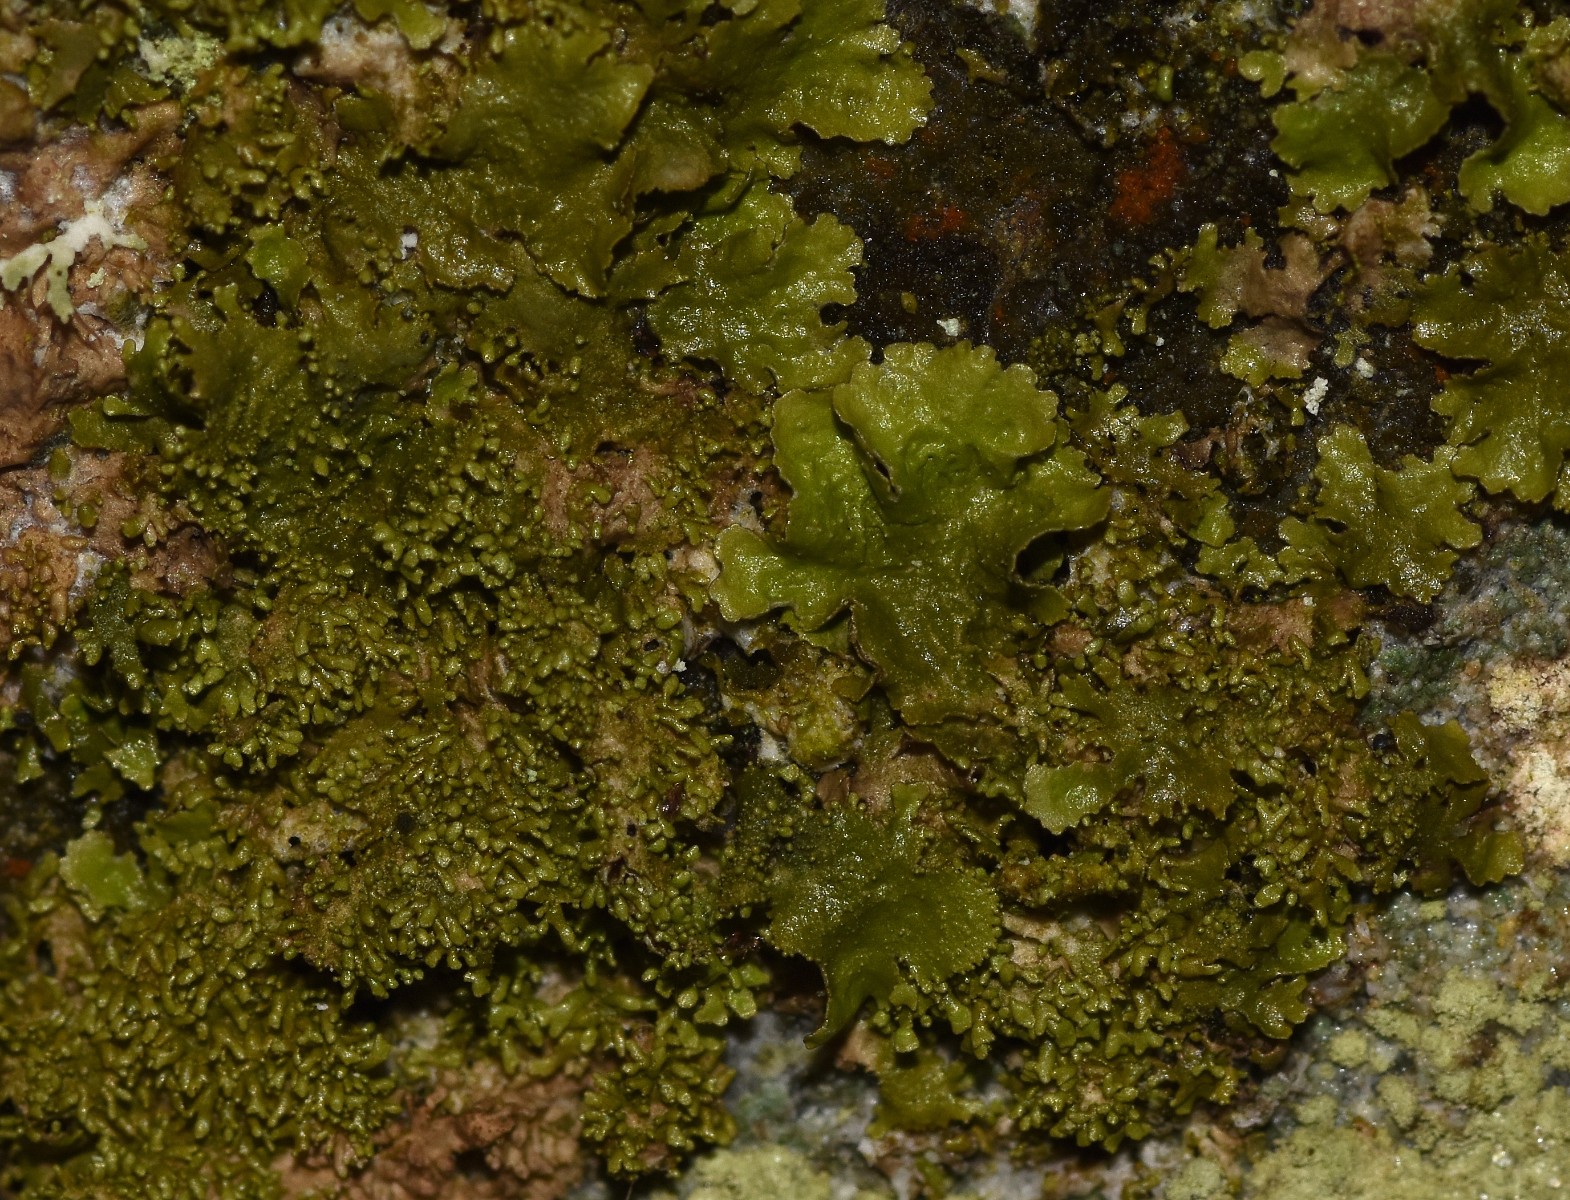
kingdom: Fungi
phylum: Ascomycota
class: Lecanoromycetes
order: Lecanorales
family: Parmeliaceae
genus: Melanohalea
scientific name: Melanohalea exasperatula
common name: kølle-skållav
